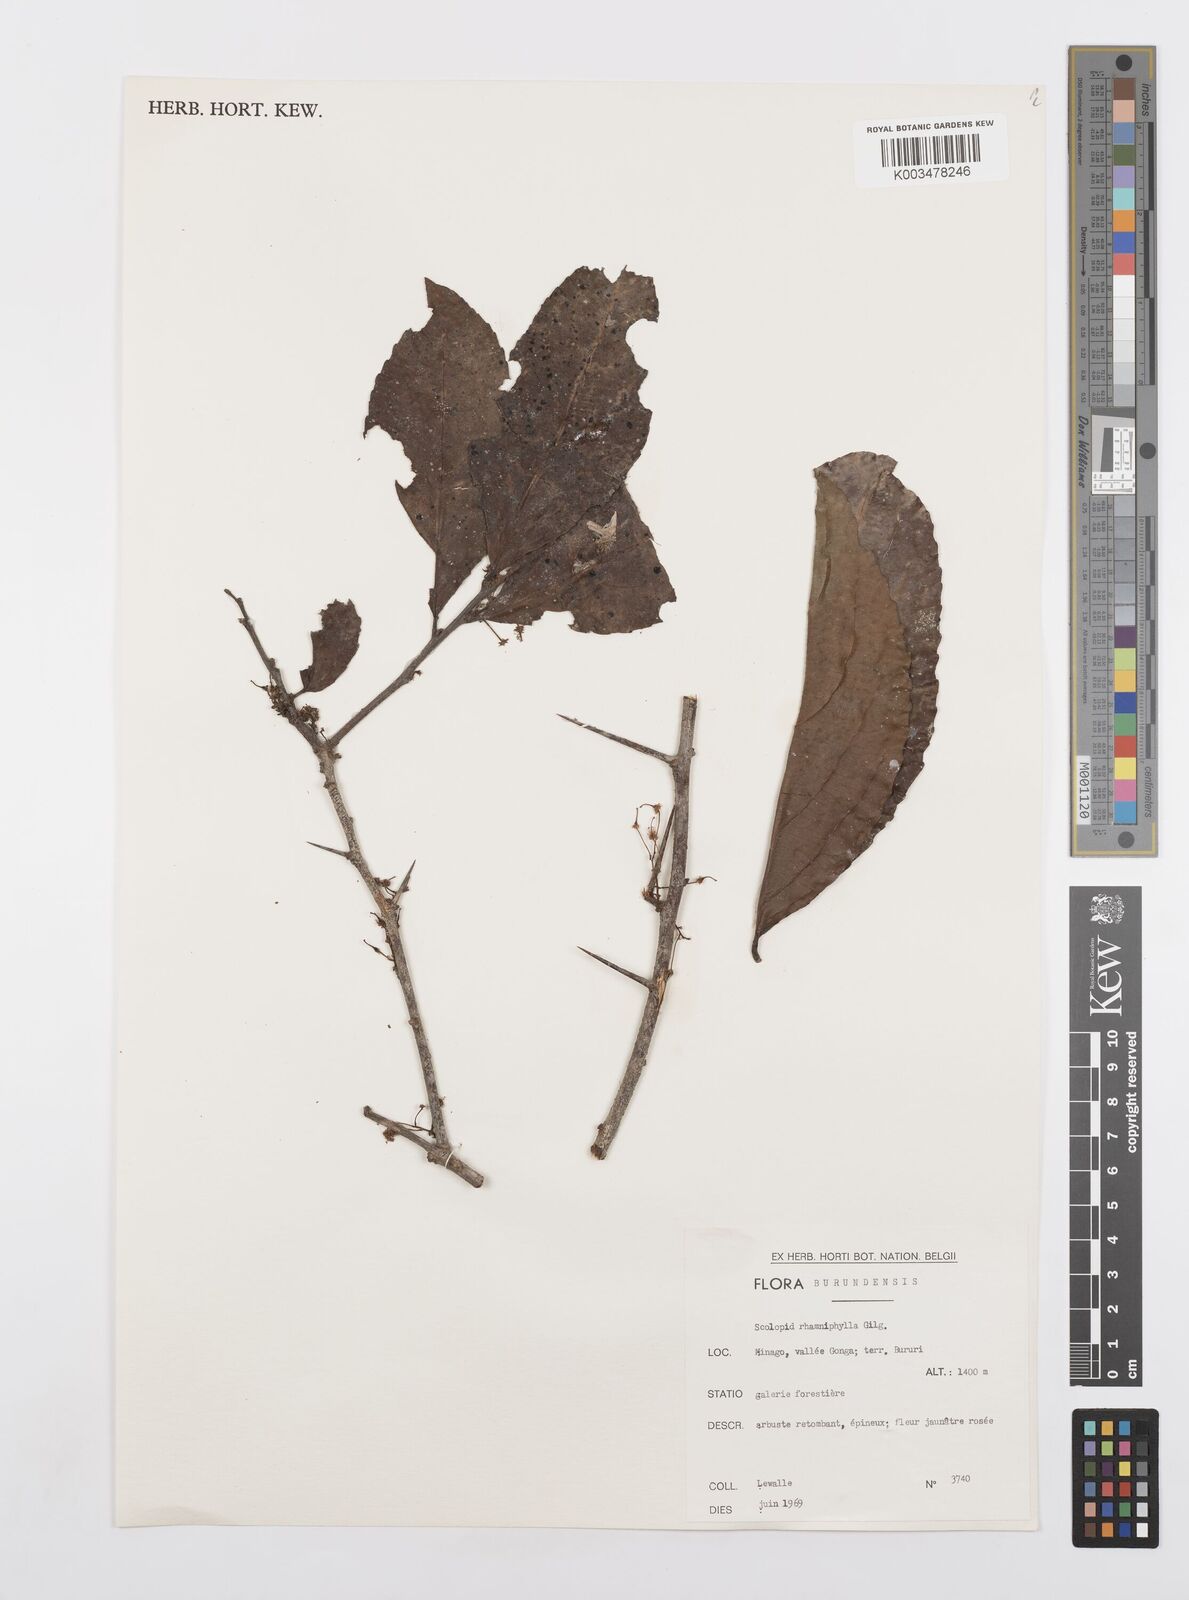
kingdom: Plantae
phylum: Tracheophyta
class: Magnoliopsida
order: Malpighiales
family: Salicaceae
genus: Scolopia
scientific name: Scolopia rhamniphylla
